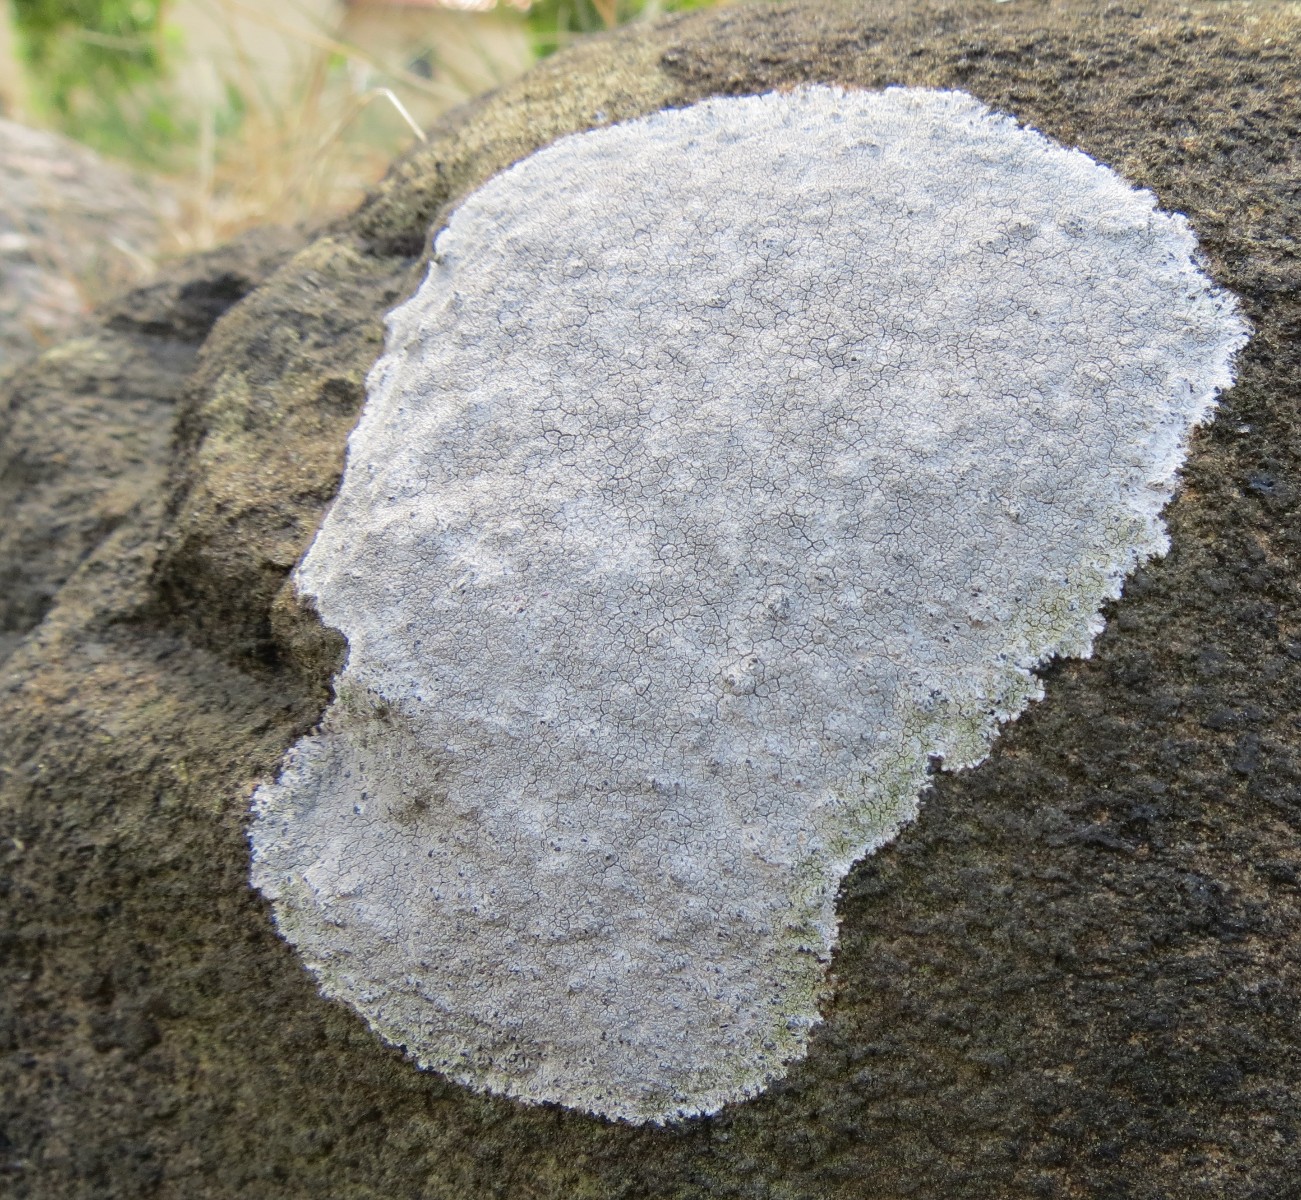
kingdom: Fungi
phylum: Ascomycota
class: Lecanoromycetes
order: Lecanorales
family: Lecanoraceae
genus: Glaucomaria
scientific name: Glaucomaria rupicola
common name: stengærde-kantskivelav
